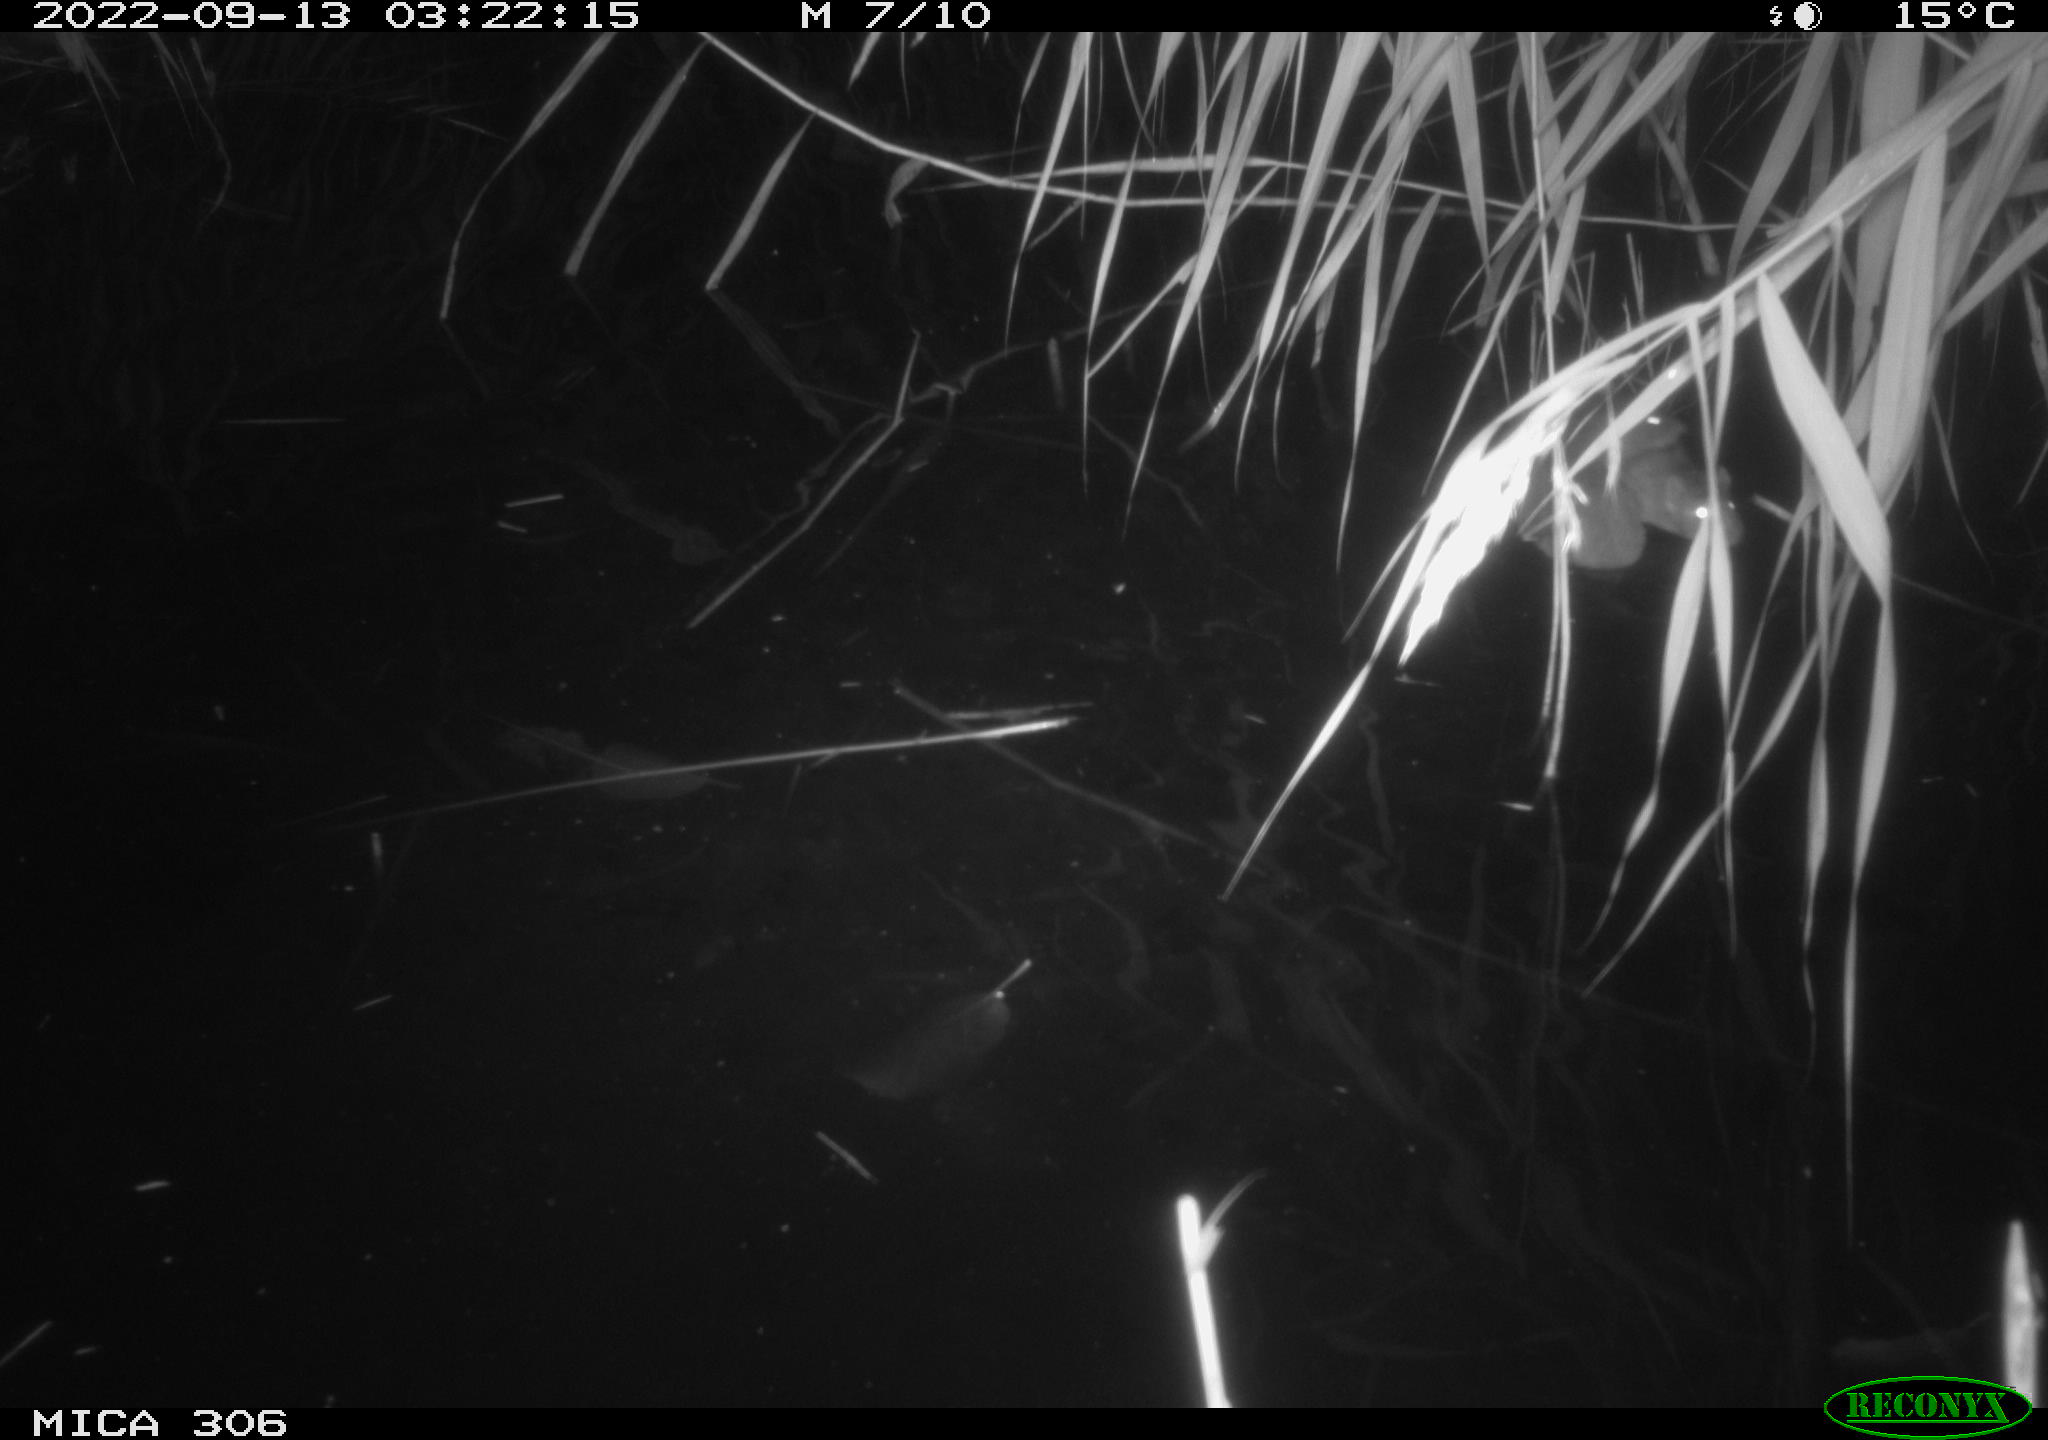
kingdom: Animalia
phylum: Chordata
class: Mammalia
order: Rodentia
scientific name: Rodentia
